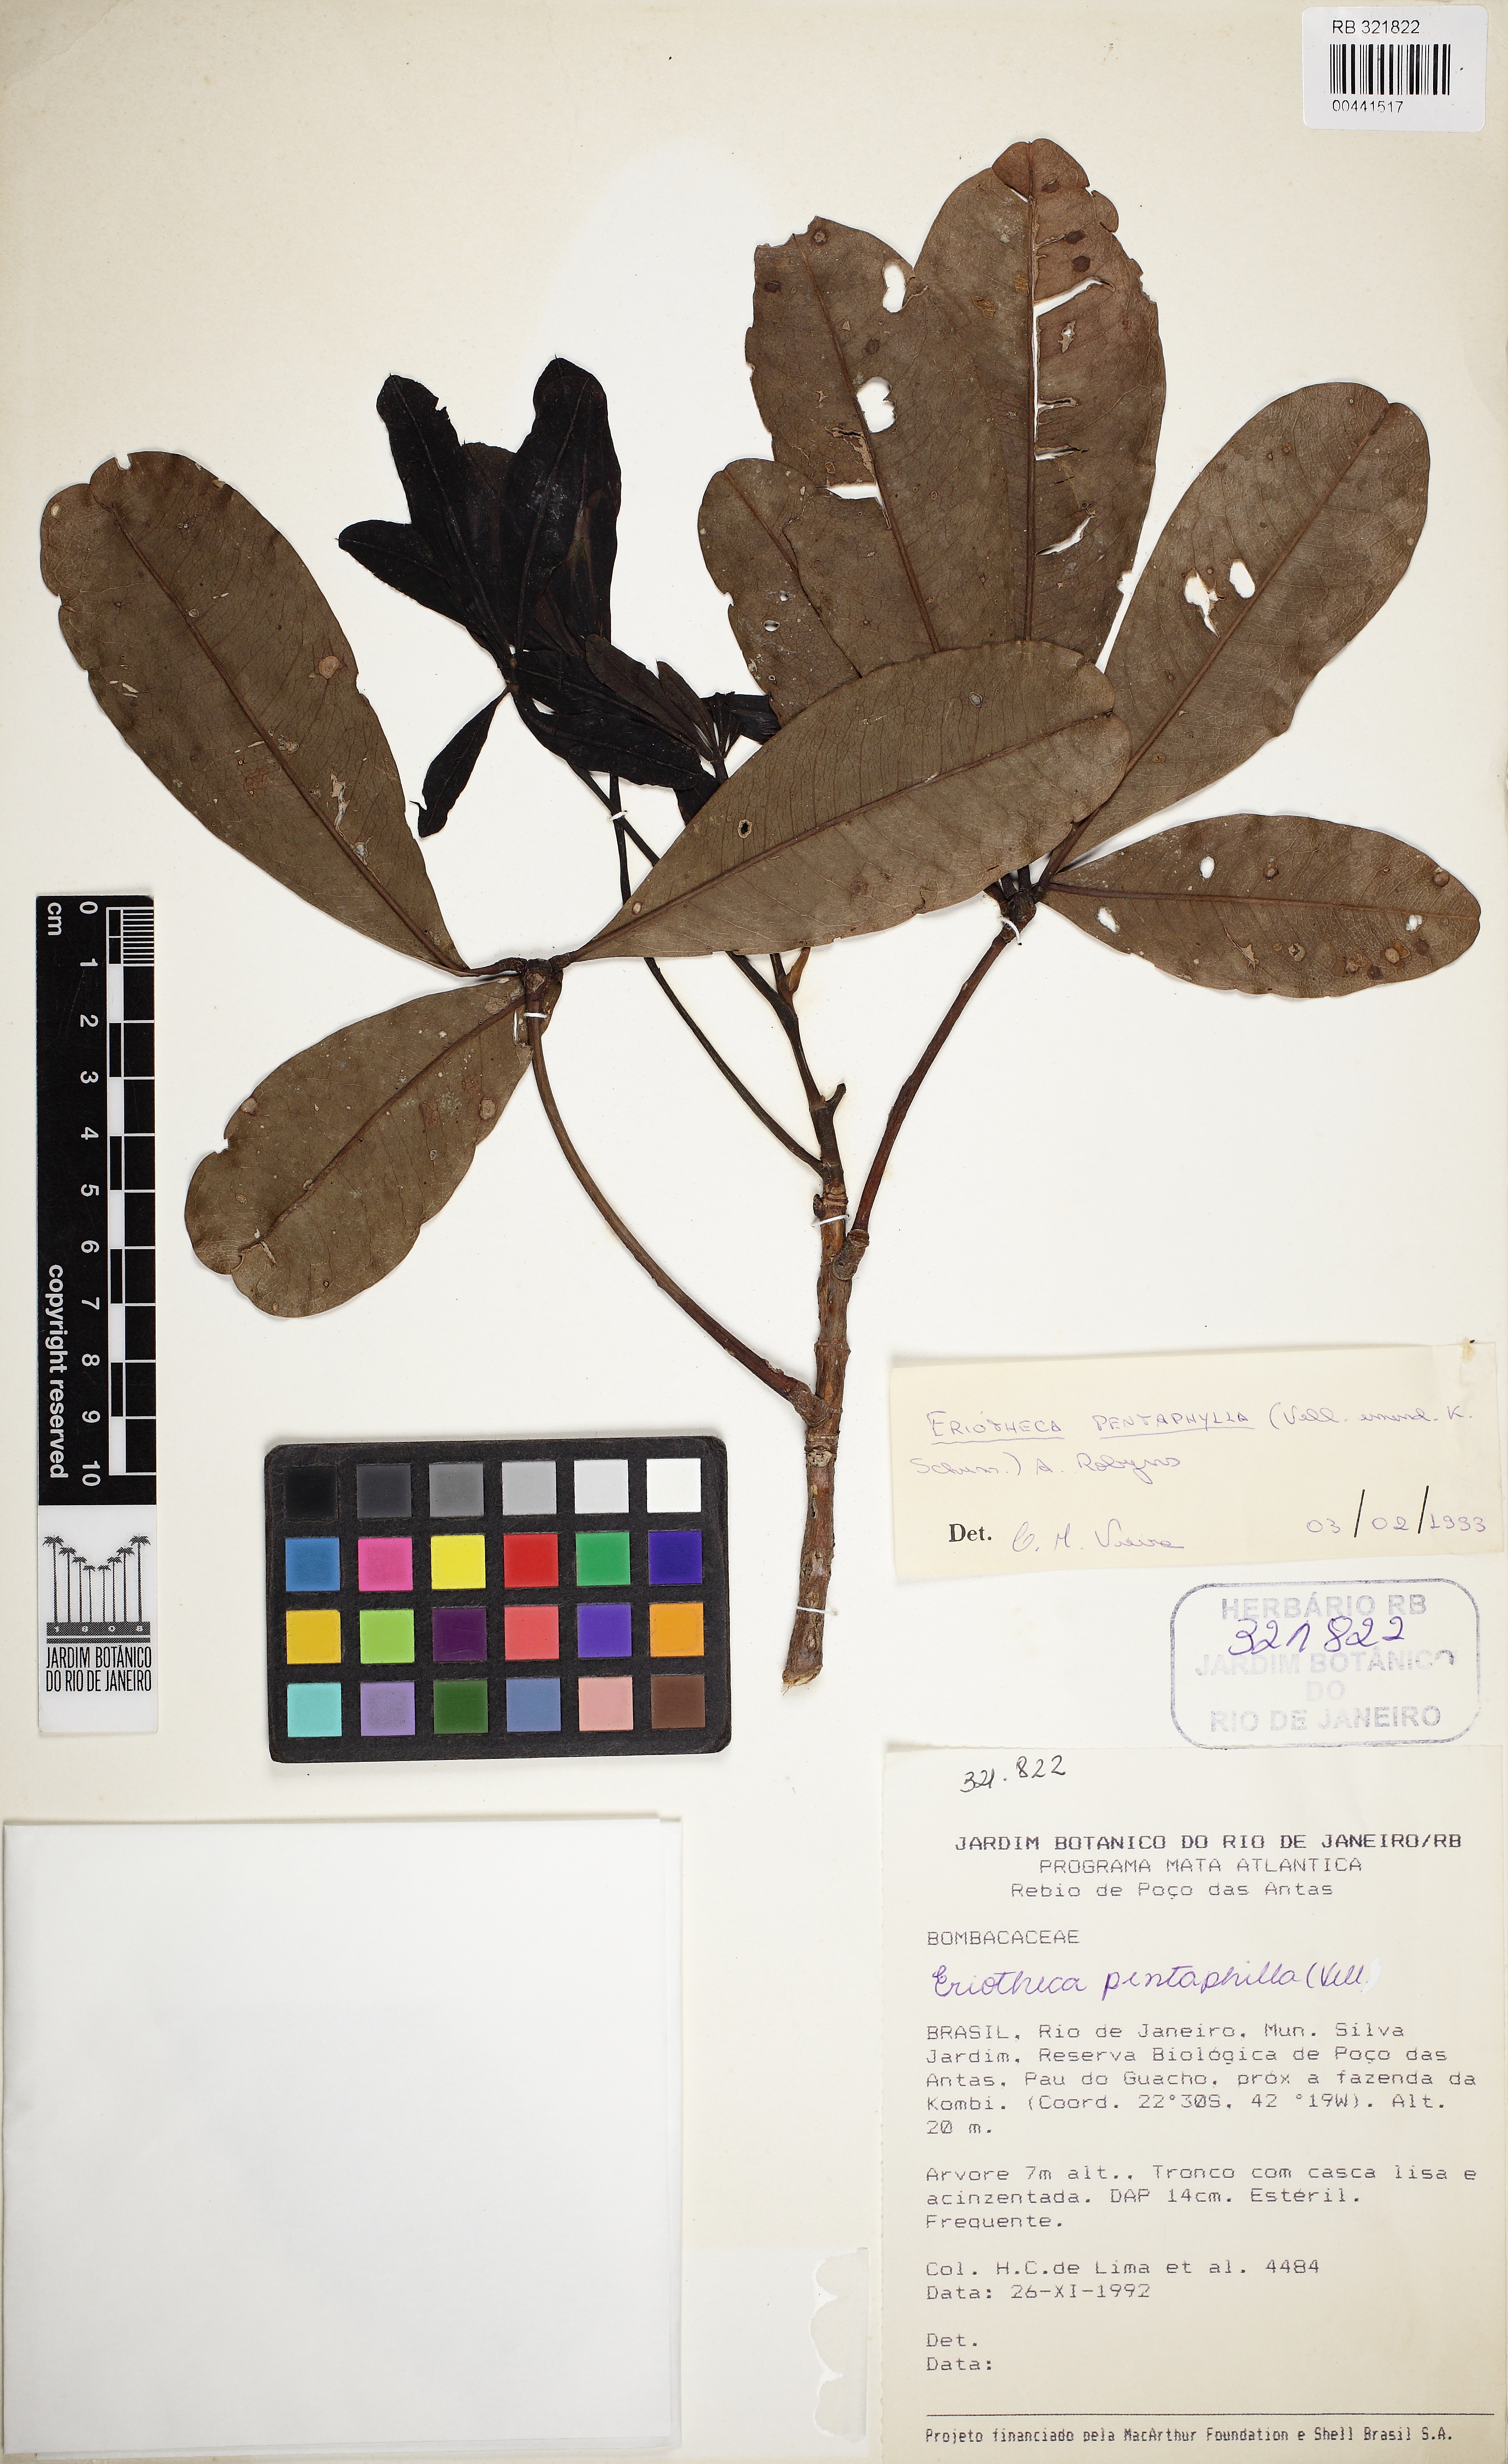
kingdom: Plantae
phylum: Tracheophyta
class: Magnoliopsida
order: Malvales
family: Malvaceae
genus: Eriotheca
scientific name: Eriotheca pentaphylla
